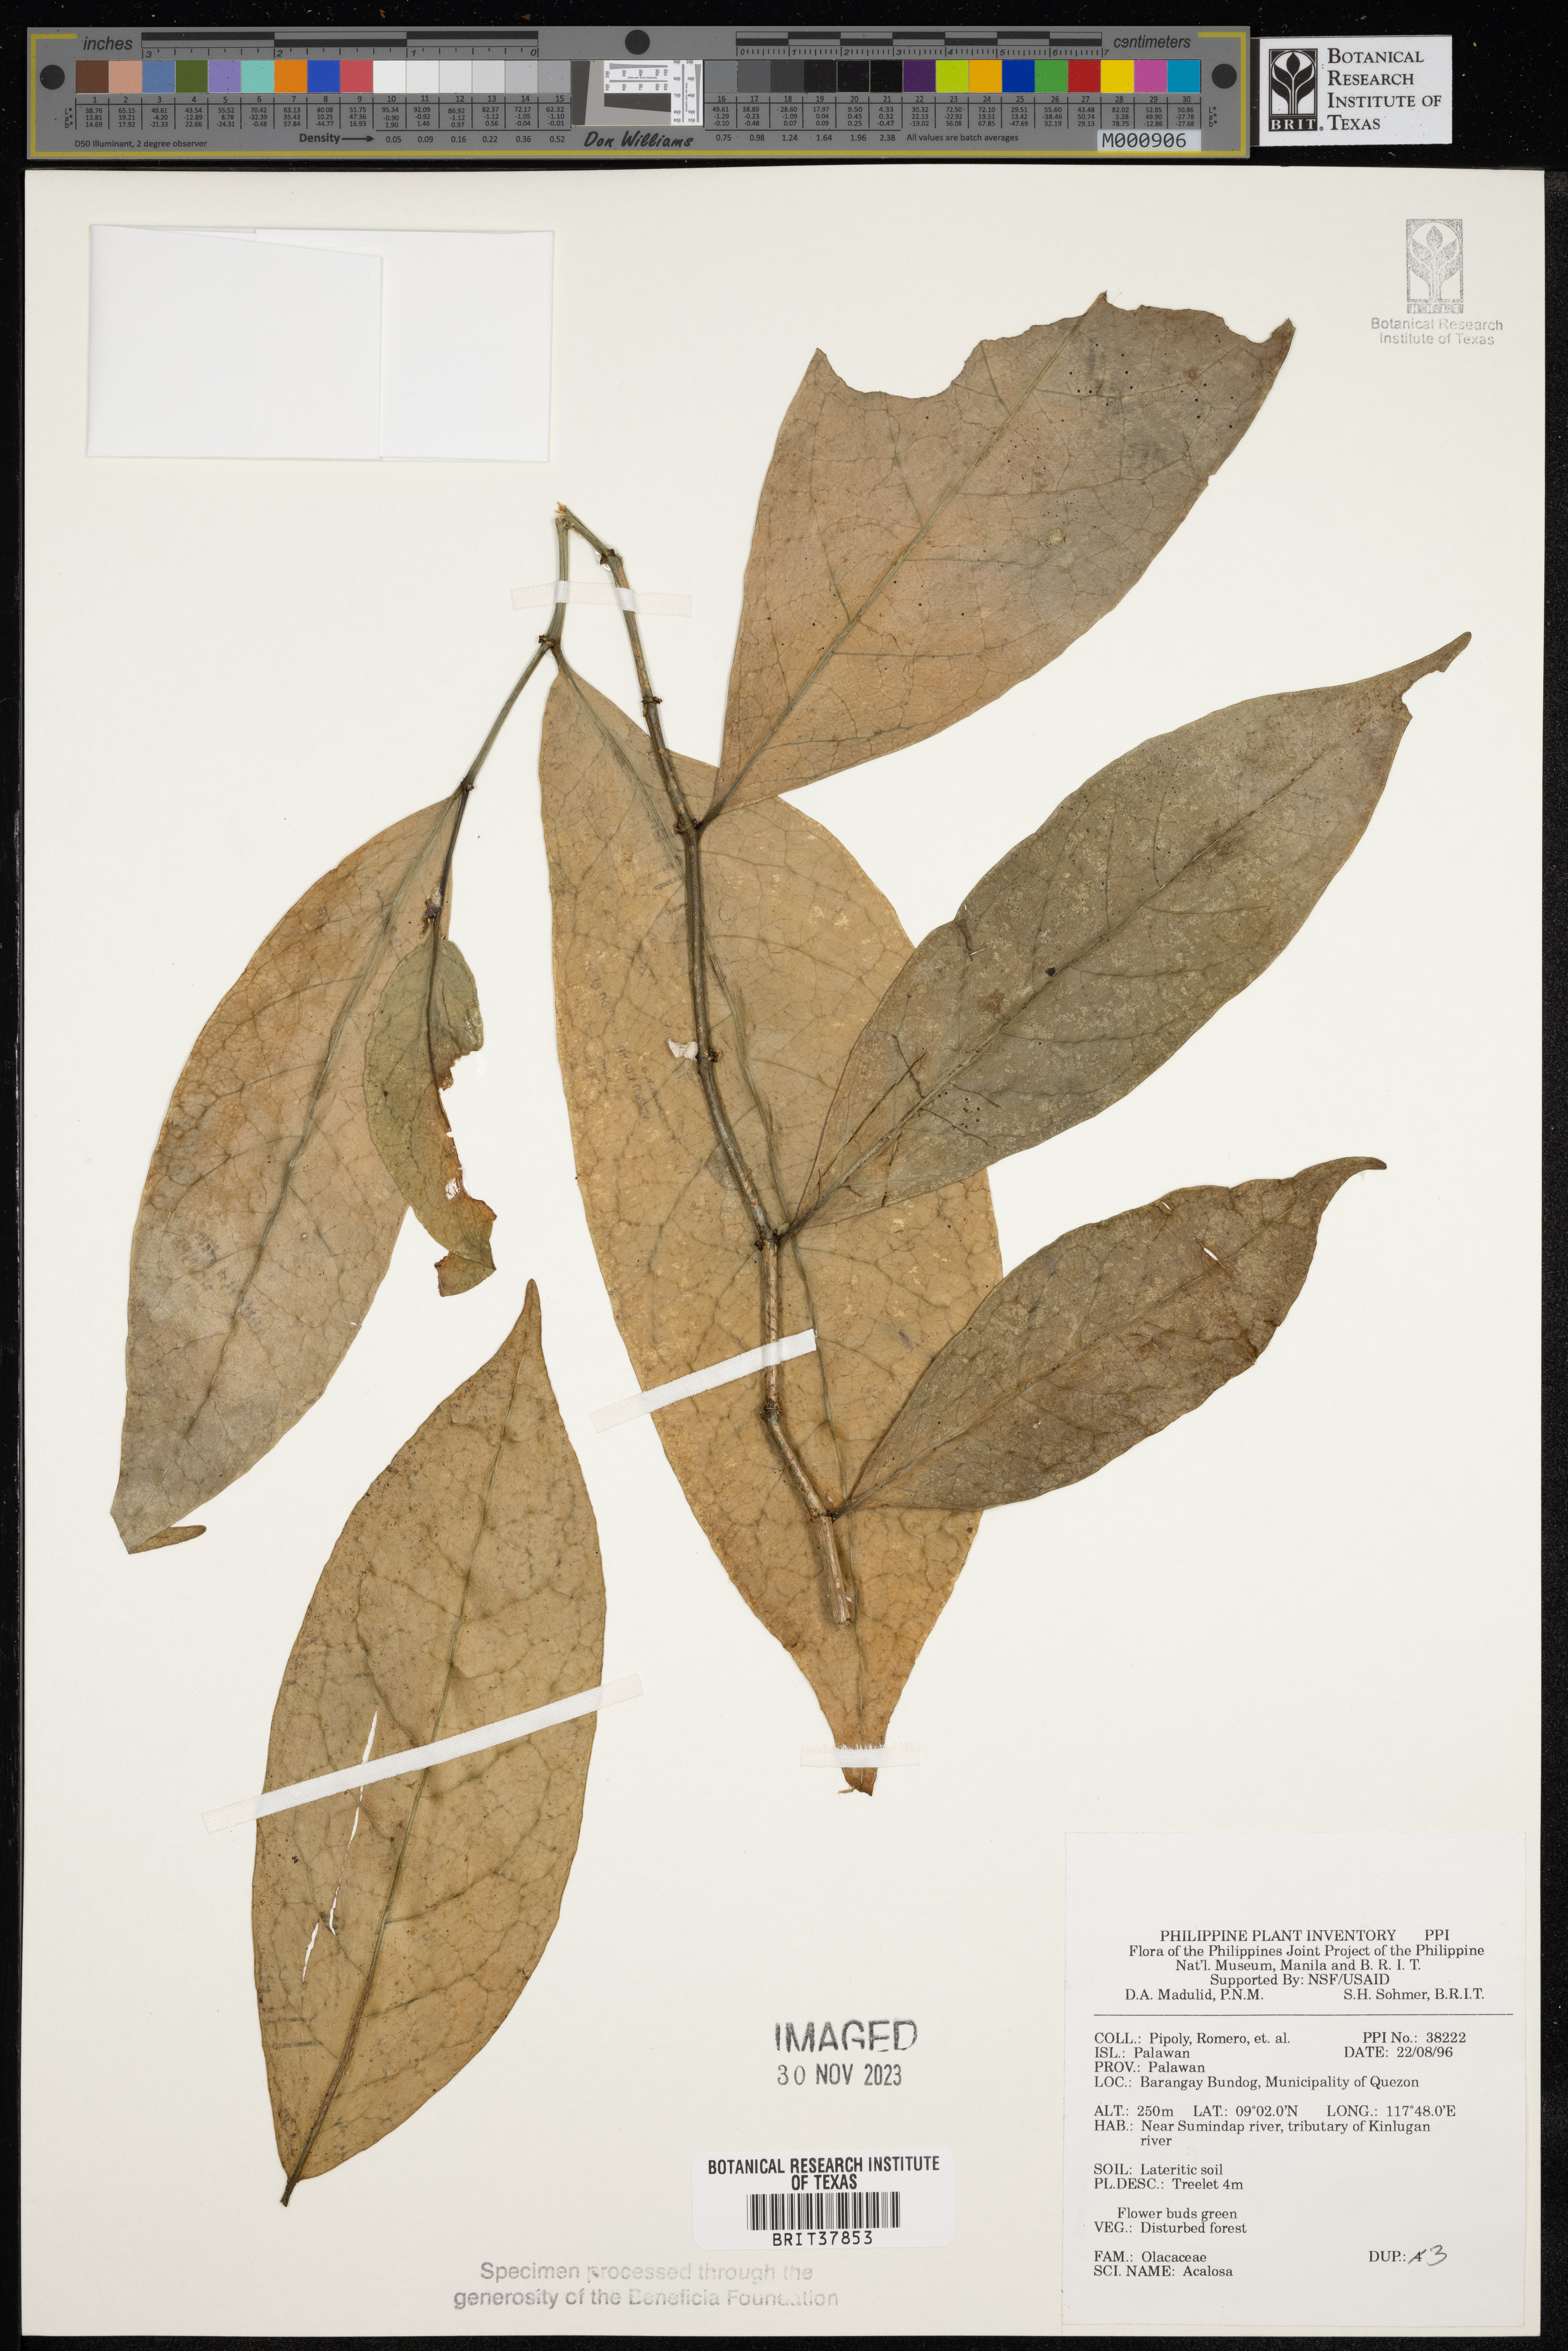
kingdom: Plantae
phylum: Tracheophyta
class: Magnoliopsida
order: Santalales
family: Aptandraceae
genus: Anacolosa
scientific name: Anacolosa
